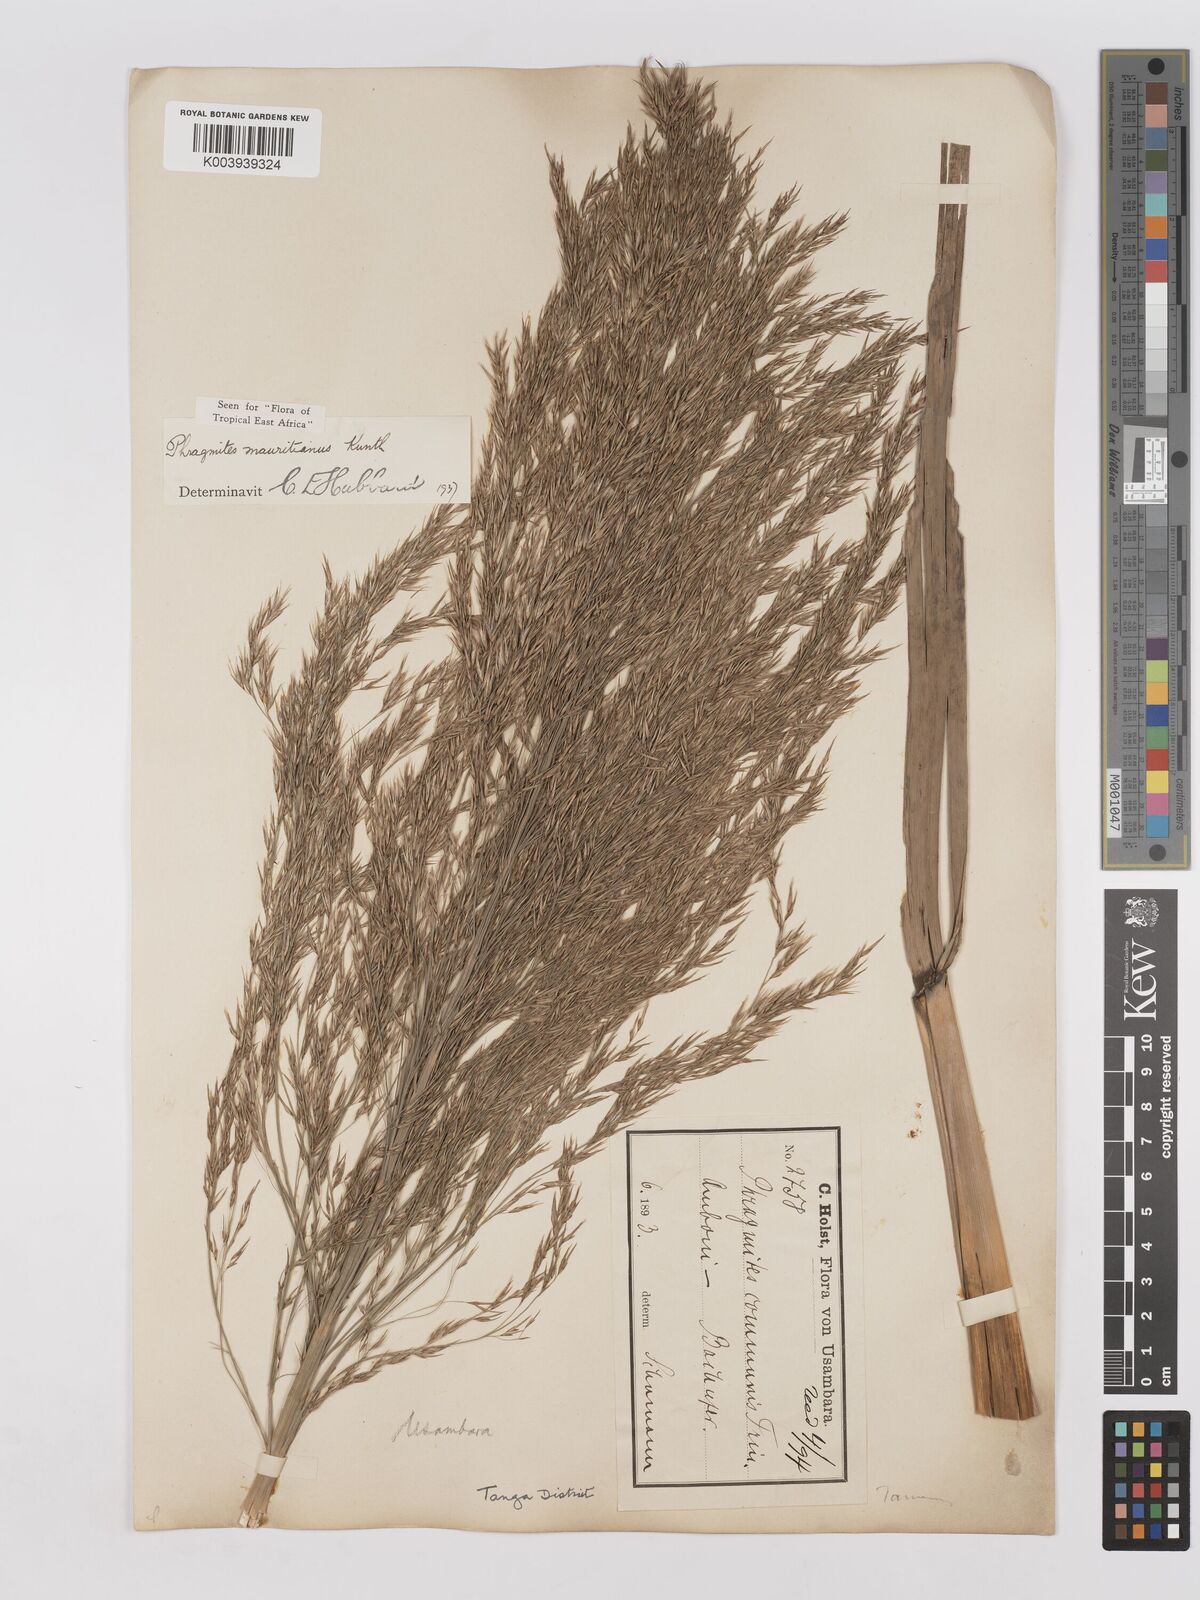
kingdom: Plantae
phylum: Tracheophyta
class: Liliopsida
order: Poales
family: Poaceae
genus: Phragmites
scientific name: Phragmites mauritianus
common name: Reed grass
